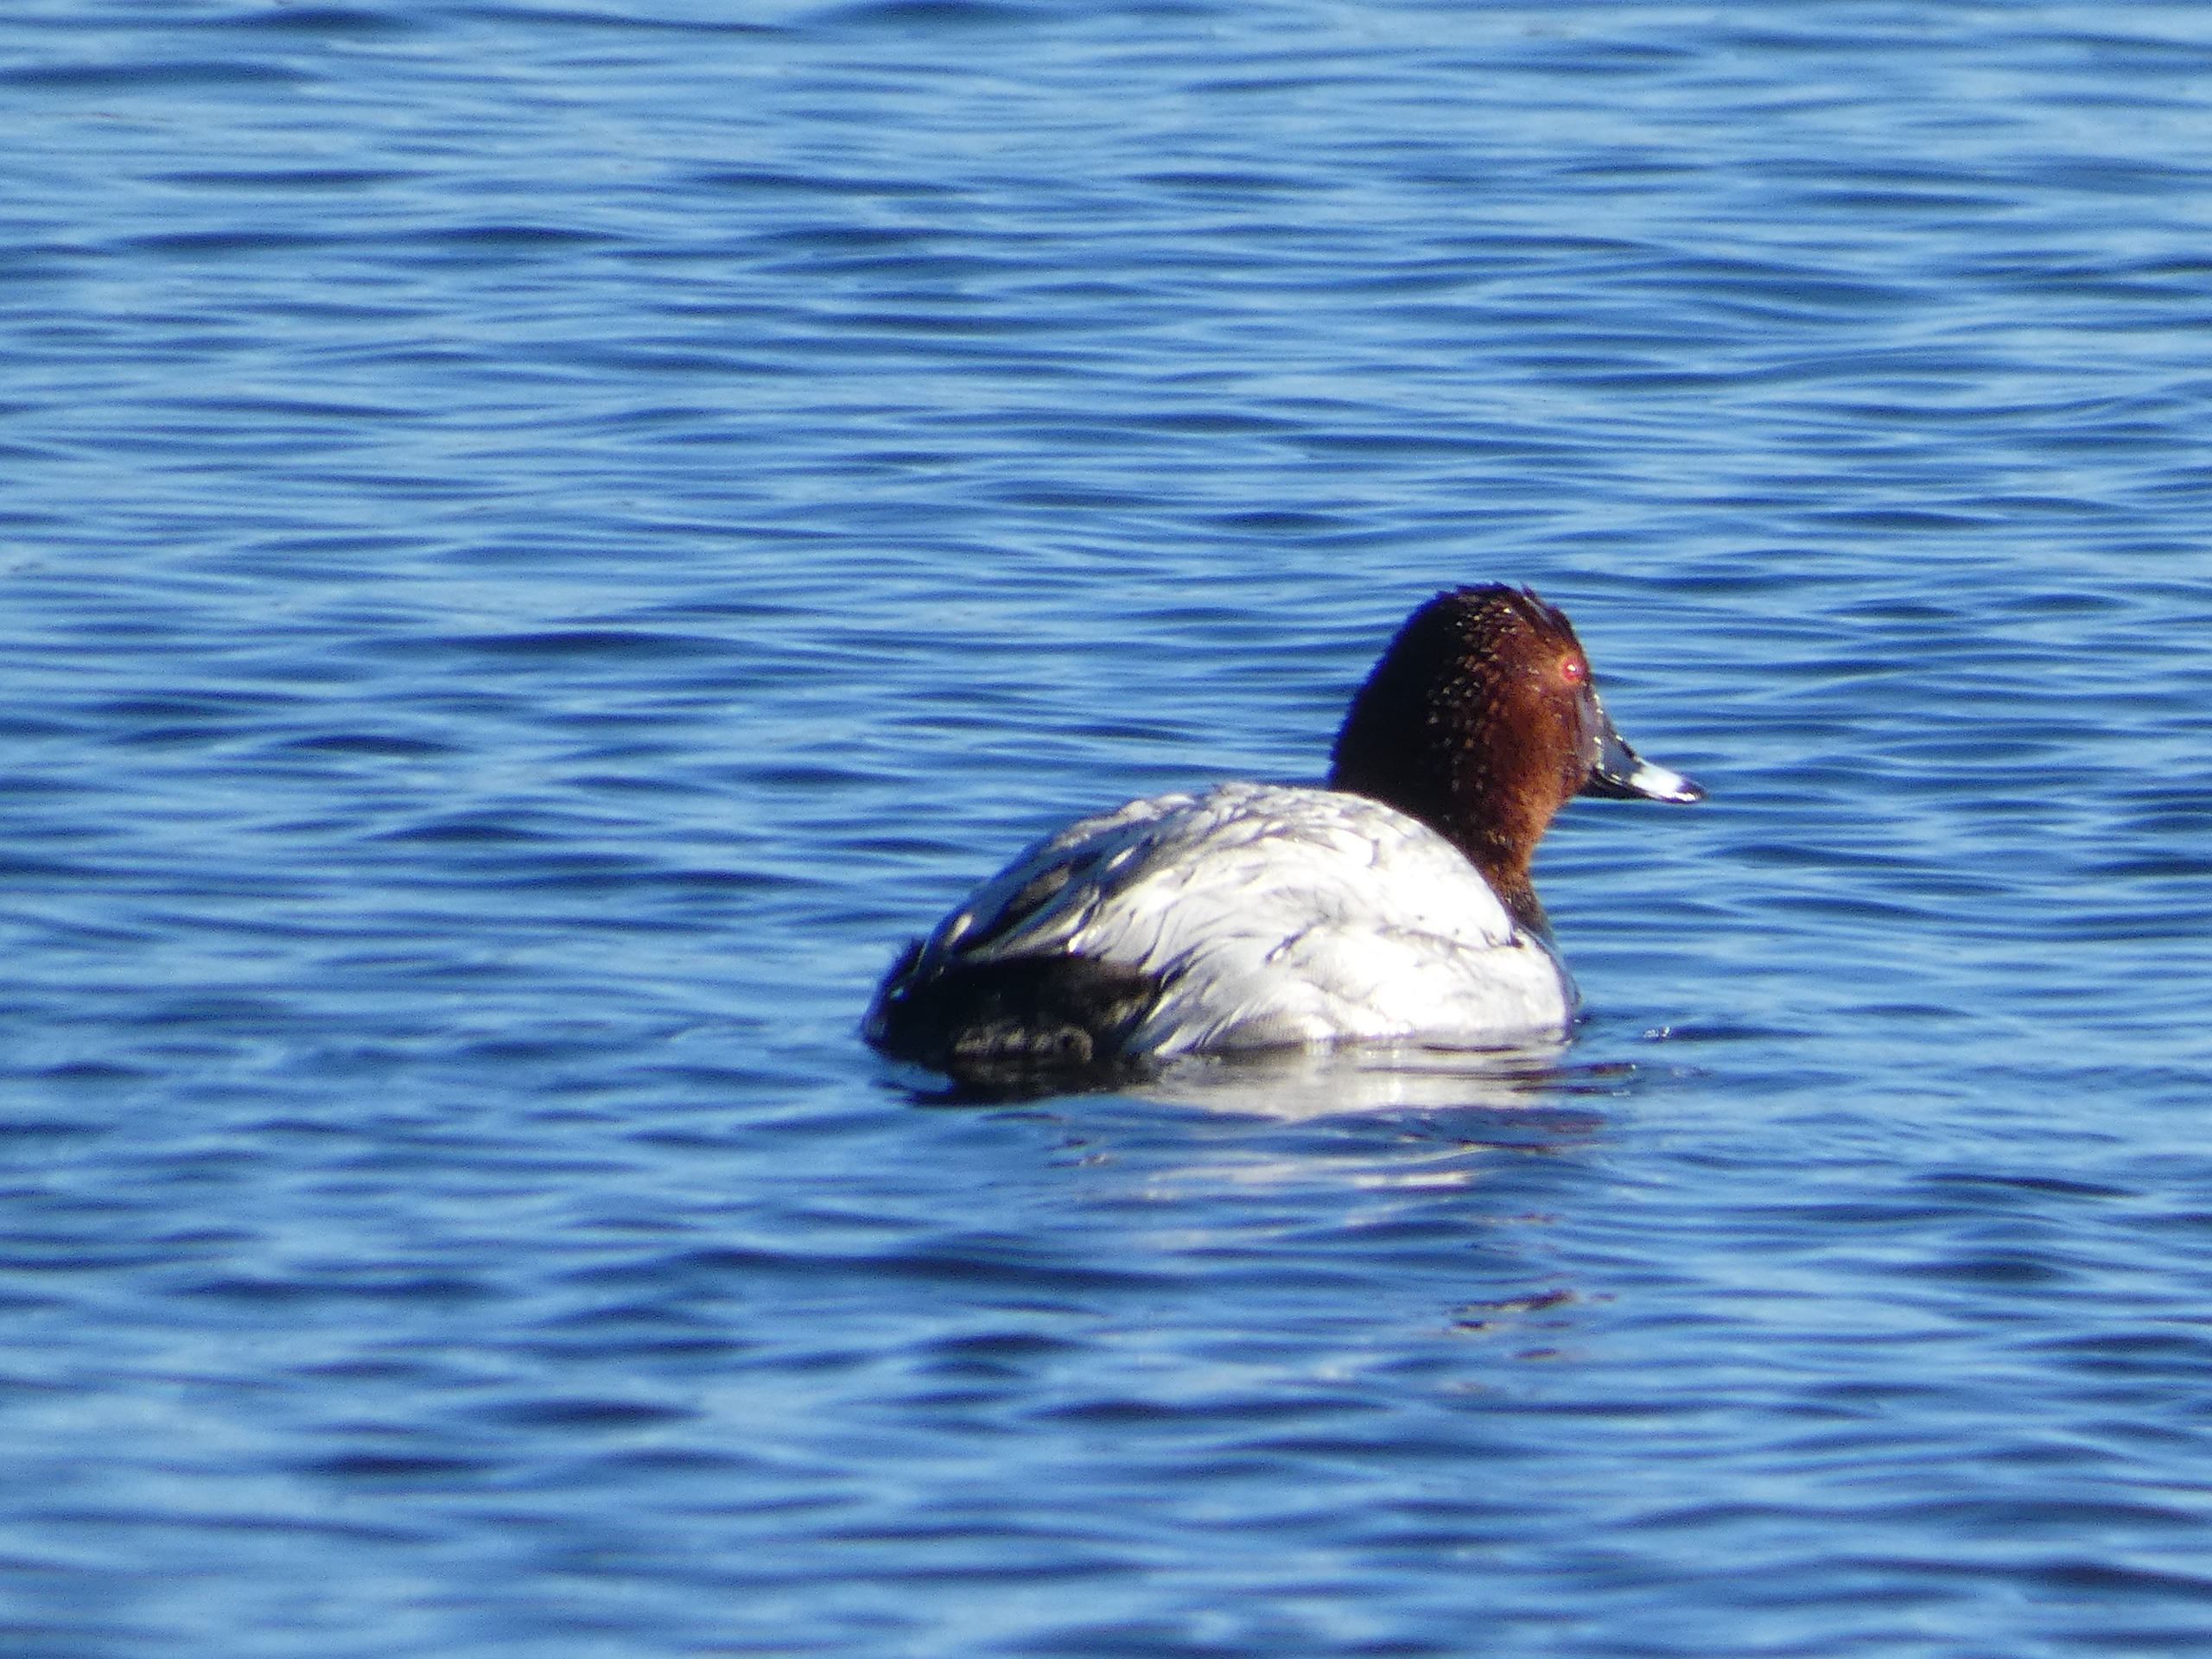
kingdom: Animalia
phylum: Chordata
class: Aves
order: Anseriformes
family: Anatidae
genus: Aythya
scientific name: Aythya ferina
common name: Taffeland
